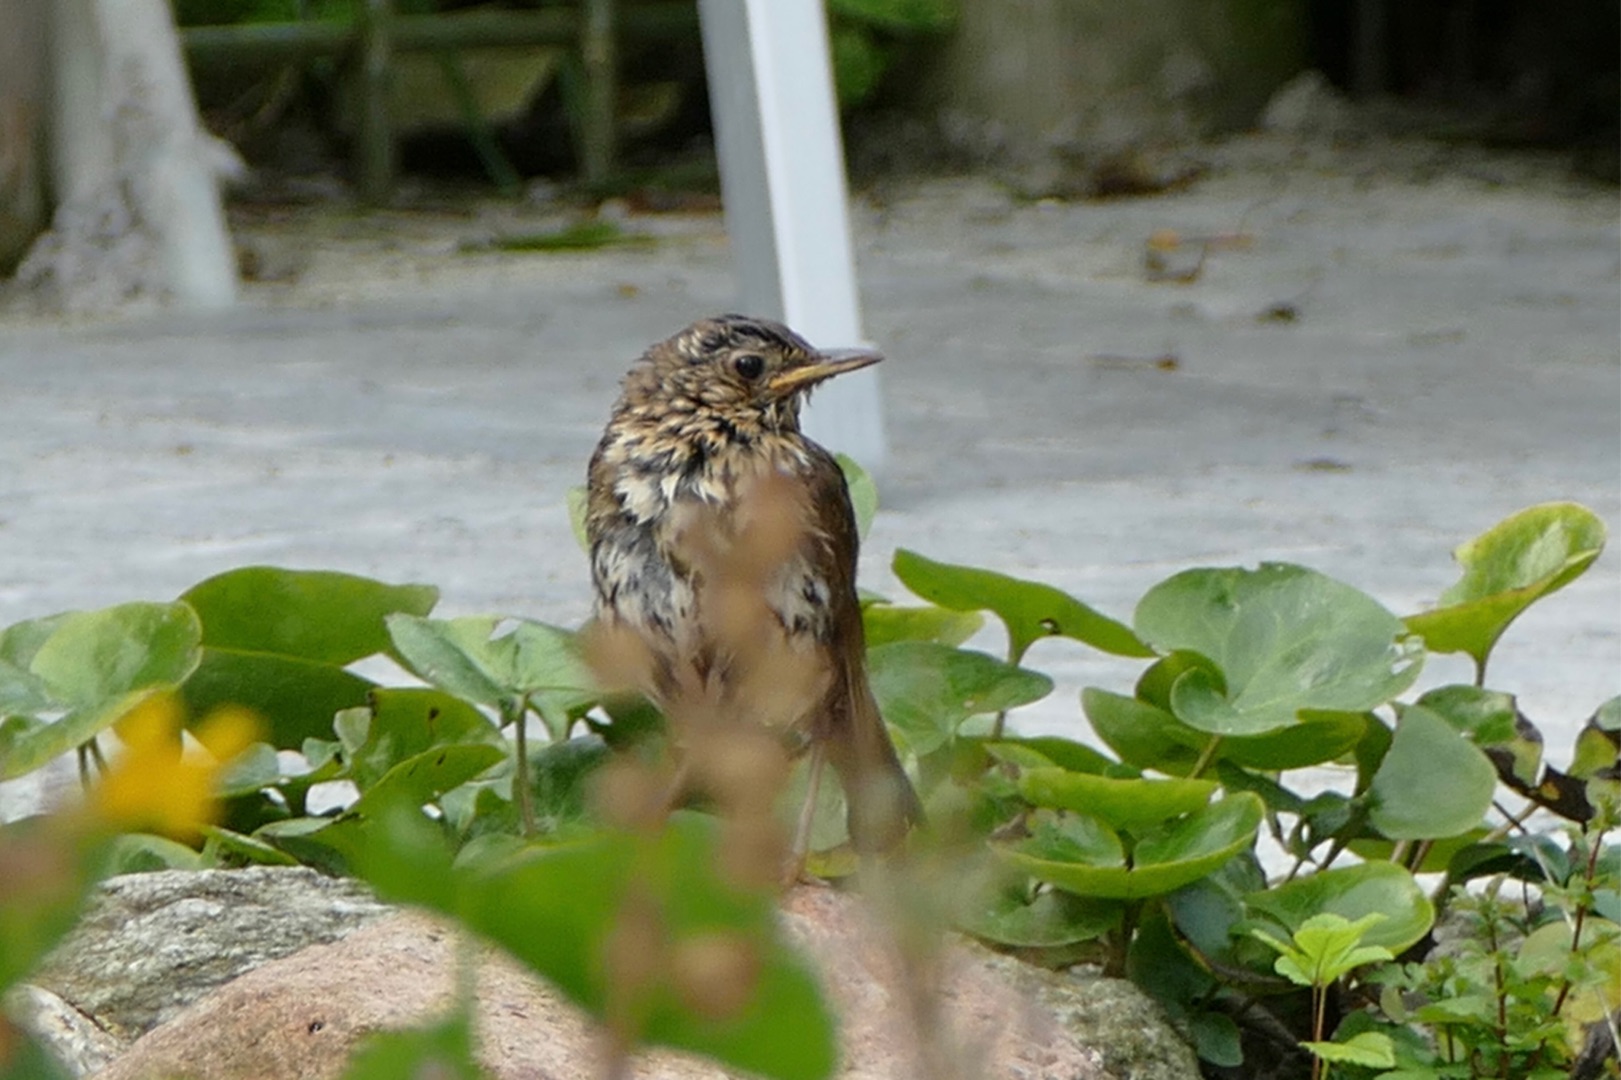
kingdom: Animalia
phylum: Chordata
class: Aves
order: Passeriformes
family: Turdidae
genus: Turdus
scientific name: Turdus philomelos
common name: Sangdrossel
